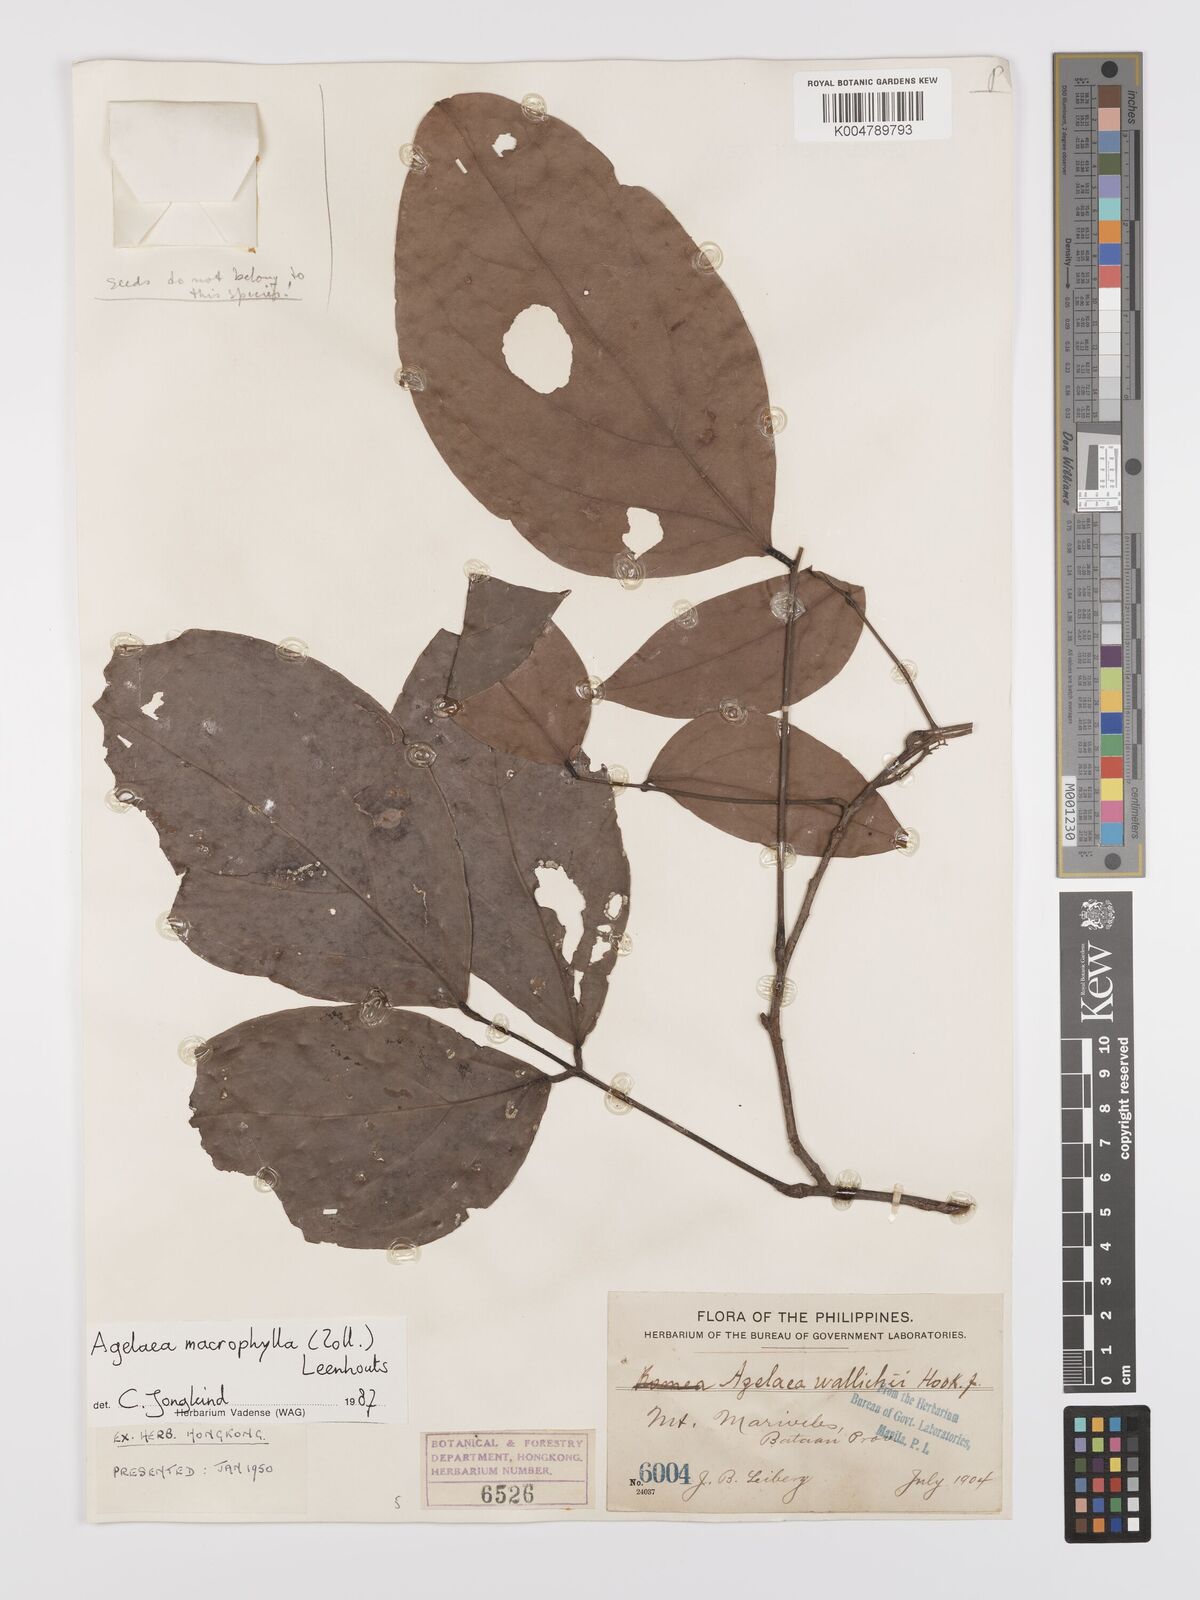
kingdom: Plantae
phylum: Tracheophyta
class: Magnoliopsida
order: Oxalidales
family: Connaraceae
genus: Agelaea
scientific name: Agelaea trinervis
